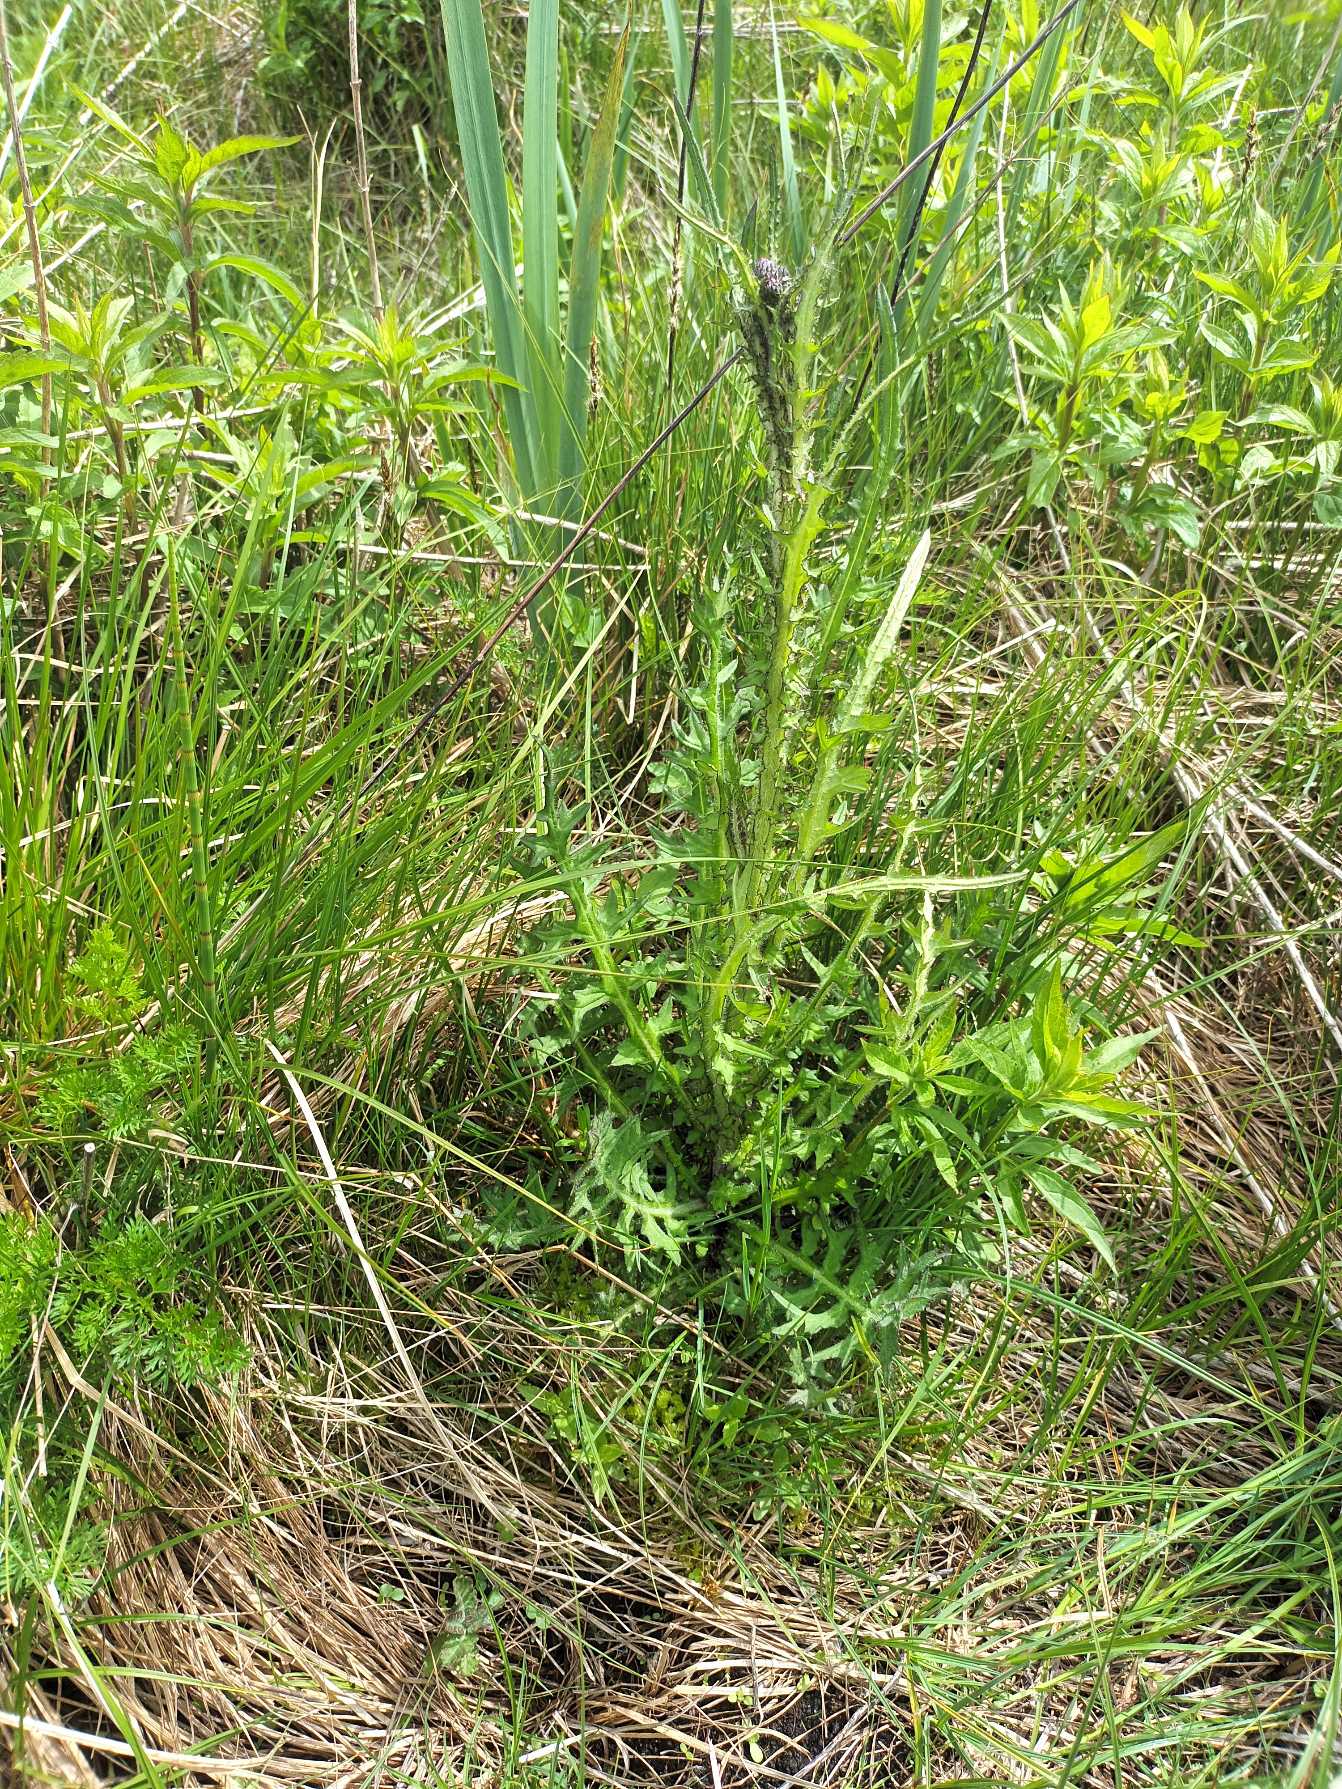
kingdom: Plantae
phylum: Tracheophyta
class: Magnoliopsida
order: Asterales
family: Asteraceae
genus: Cirsium
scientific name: Cirsium palustre
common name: Kær-tidsel
